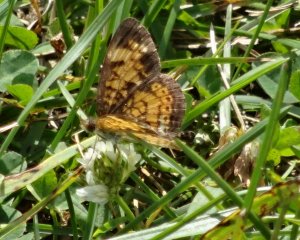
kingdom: Animalia
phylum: Arthropoda
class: Insecta
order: Lepidoptera
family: Nymphalidae
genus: Phyciodes
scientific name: Phyciodes tharos
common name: Northern Crescent
